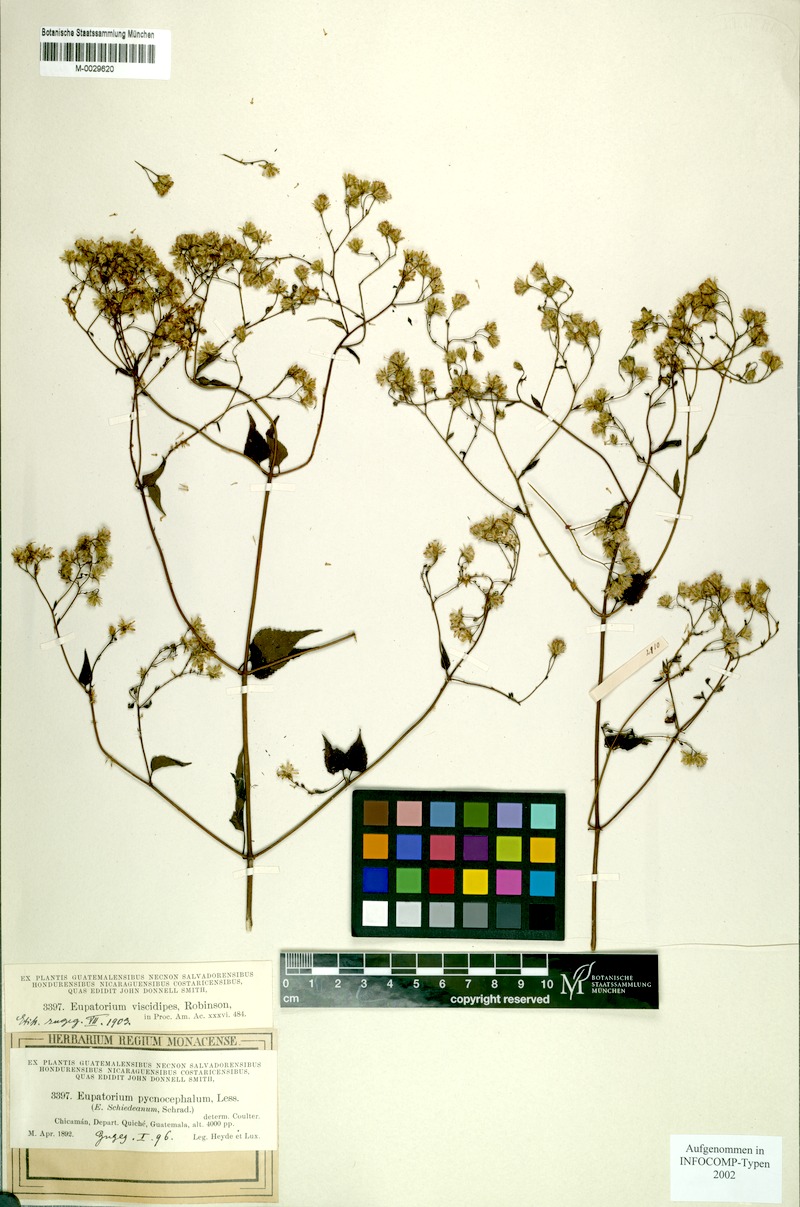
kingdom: Plantae
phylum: Tracheophyta
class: Magnoliopsida
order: Asterales
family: Asteraceae
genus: Fleischmannia
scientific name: Fleischmannia viscidipes
